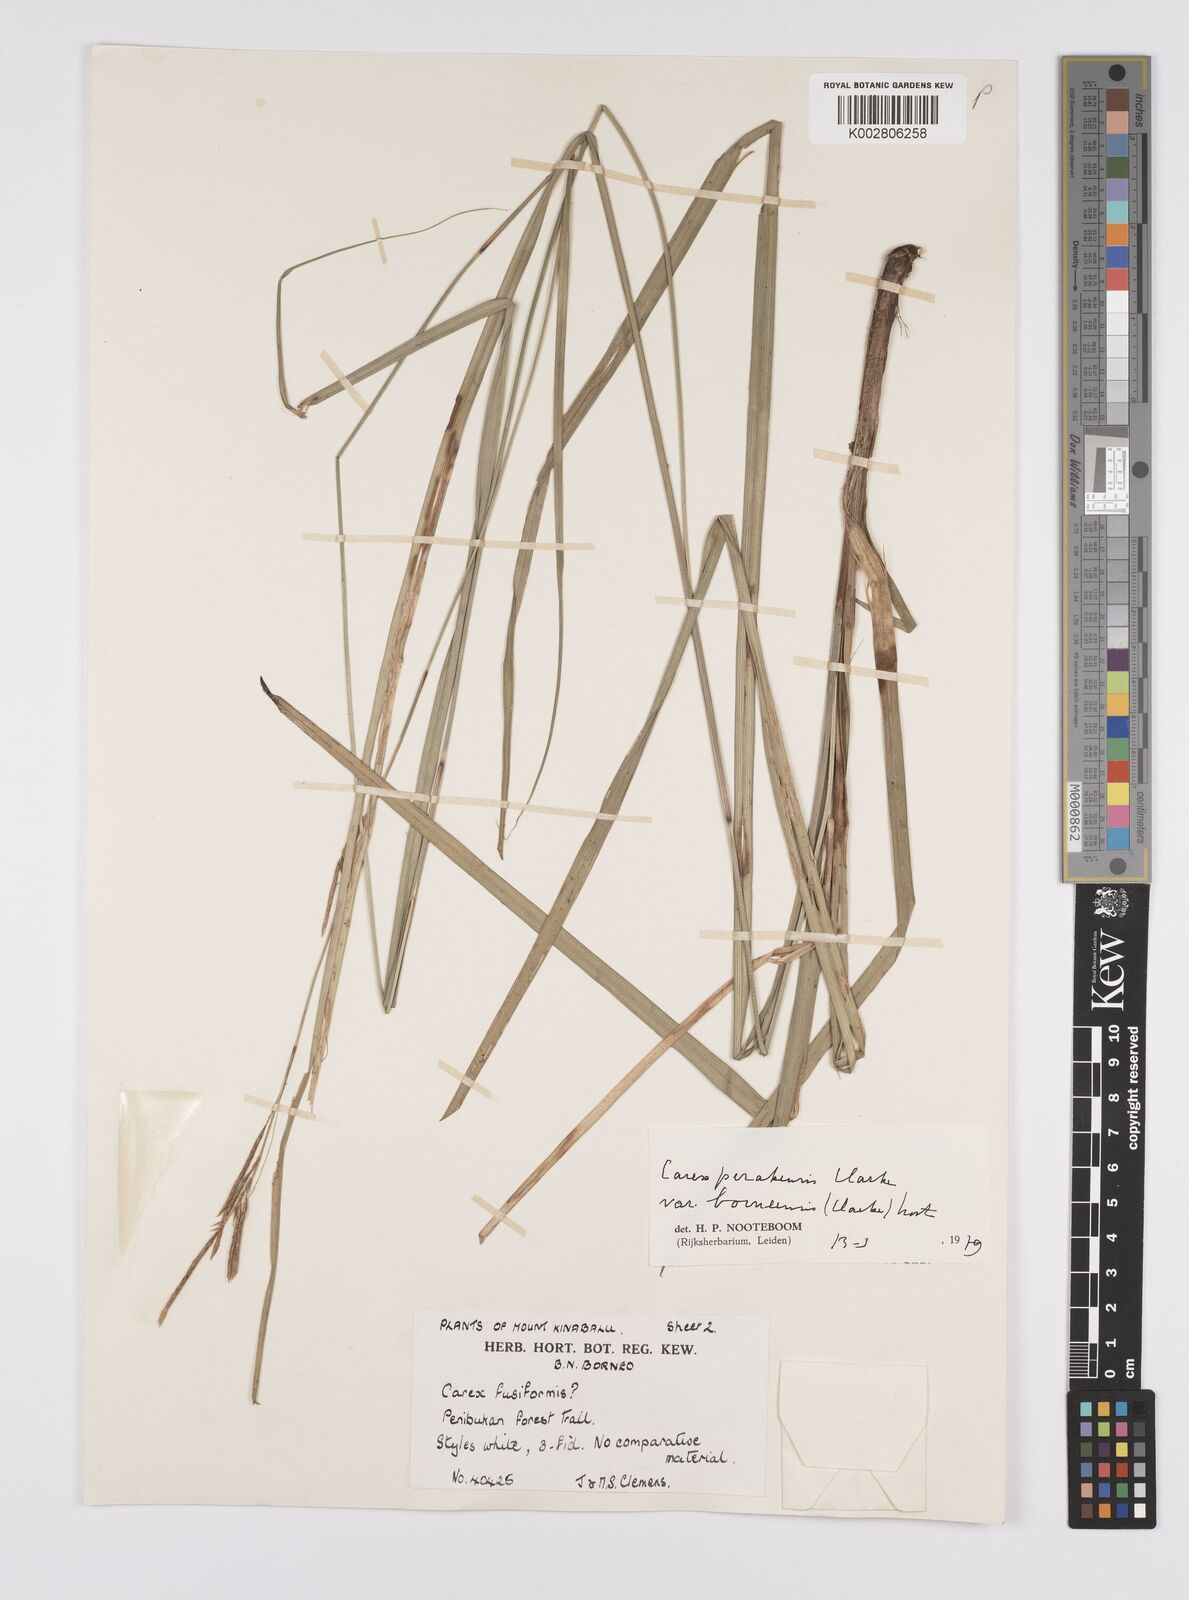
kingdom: Plantae
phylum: Tracheophyta
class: Liliopsida
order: Poales
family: Cyperaceae
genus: Carex
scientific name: Carex perakensis
